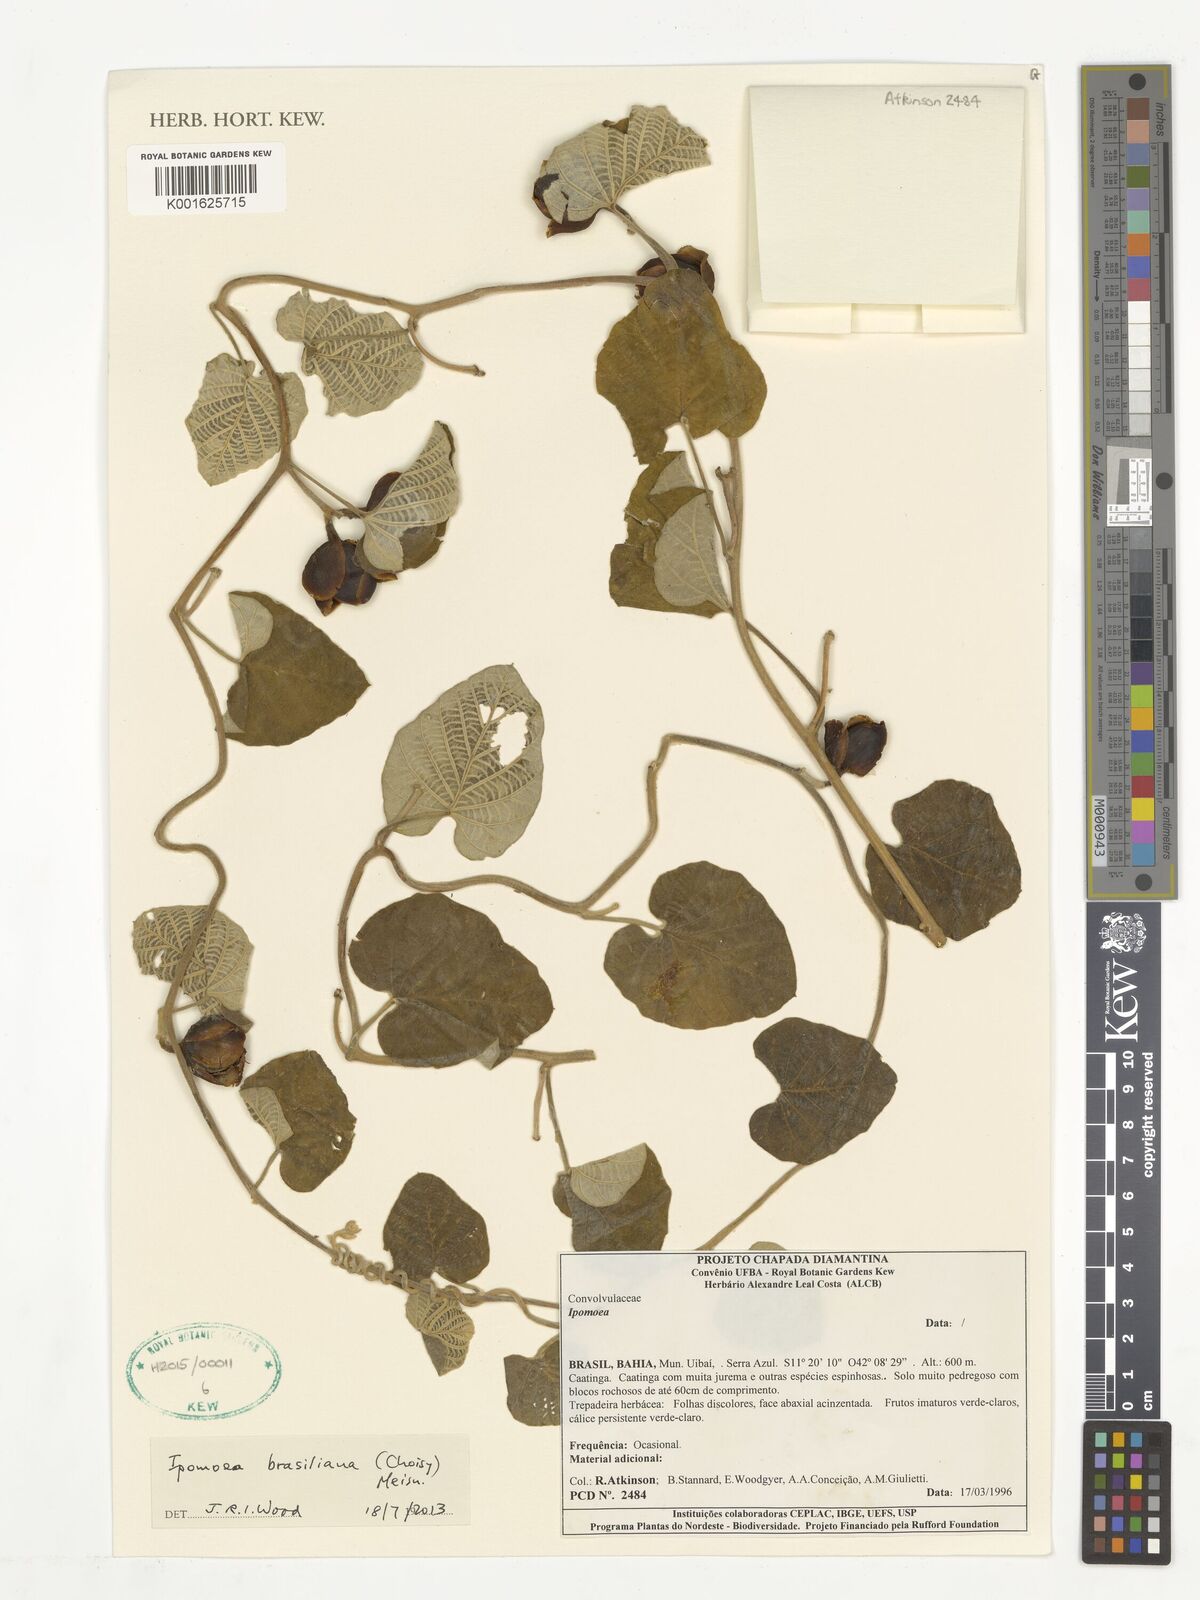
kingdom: Plantae
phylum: Tracheophyta
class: Magnoliopsida
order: Solanales
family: Convolvulaceae
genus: Ipomoea
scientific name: Ipomoea brasiliana
